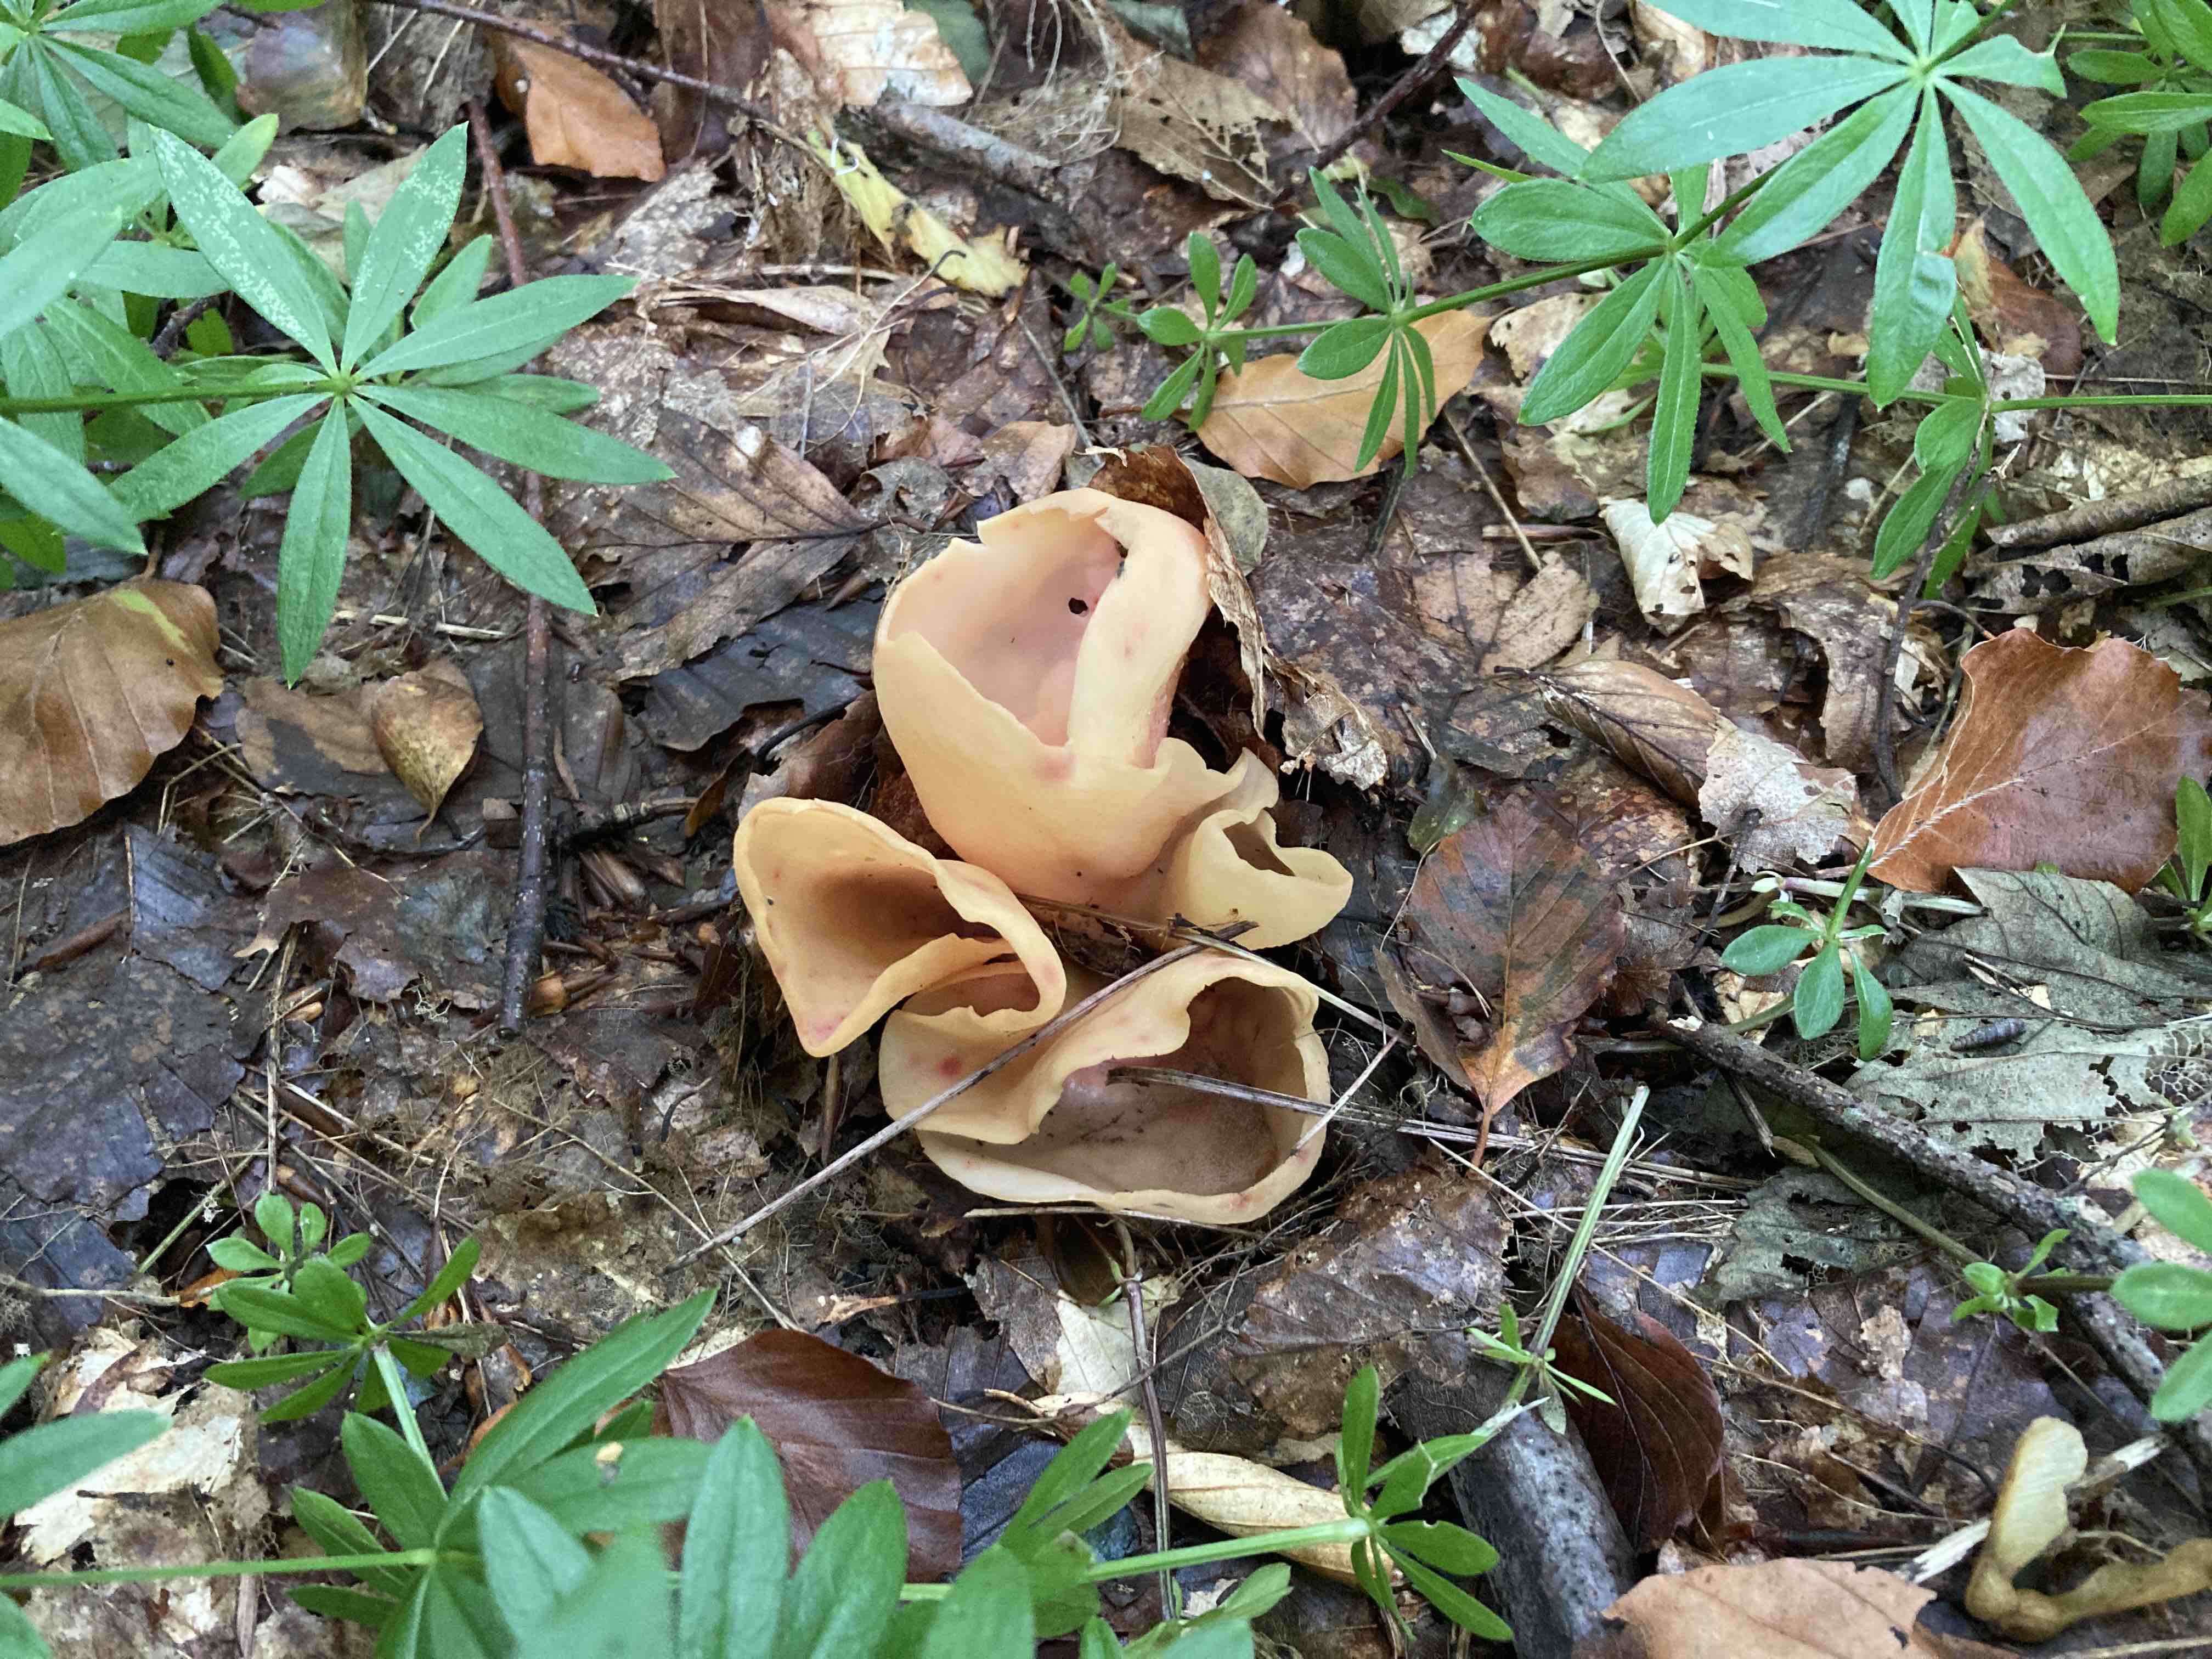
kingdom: Fungi
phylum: Ascomycota
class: Pezizomycetes
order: Pezizales
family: Otideaceae
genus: Otidea
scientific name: Otidea onotica
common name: æsel-ørebæger
